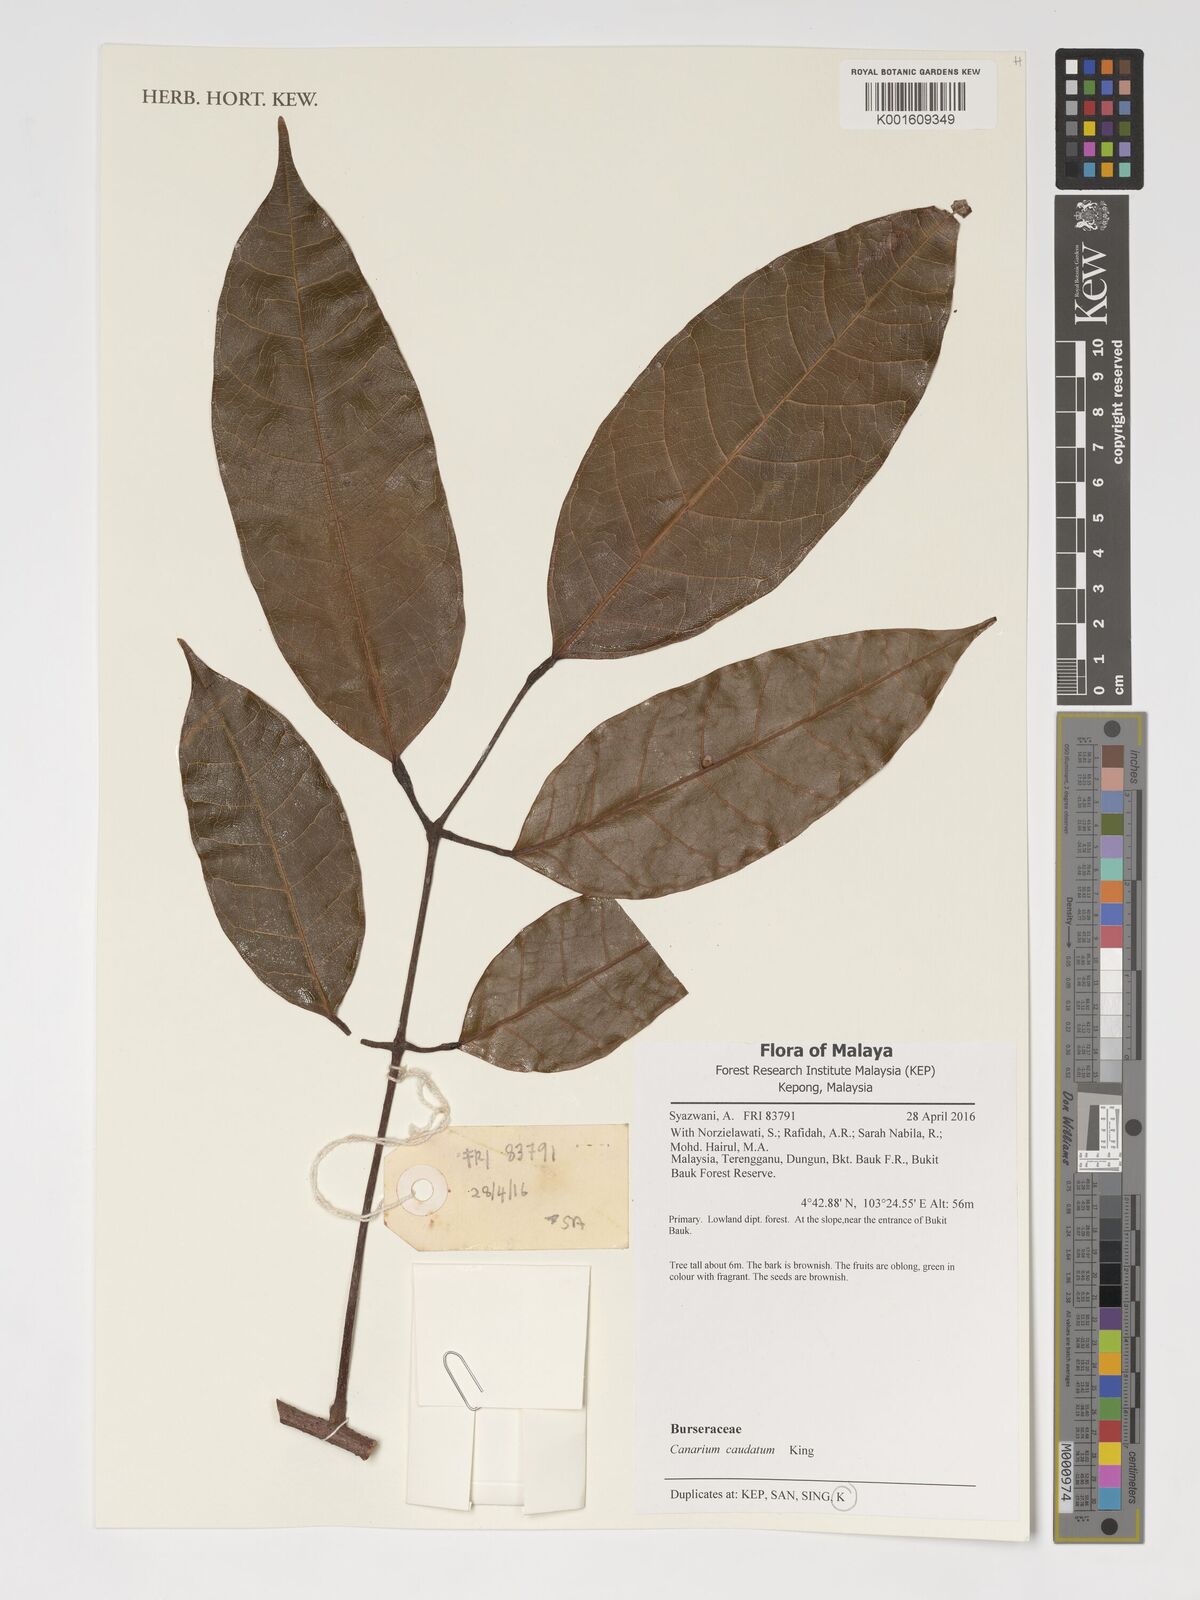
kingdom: Plantae
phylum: Tracheophyta
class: Magnoliopsida
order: Sapindales
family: Burseraceae
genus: Canarium
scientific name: Canarium caudatum
